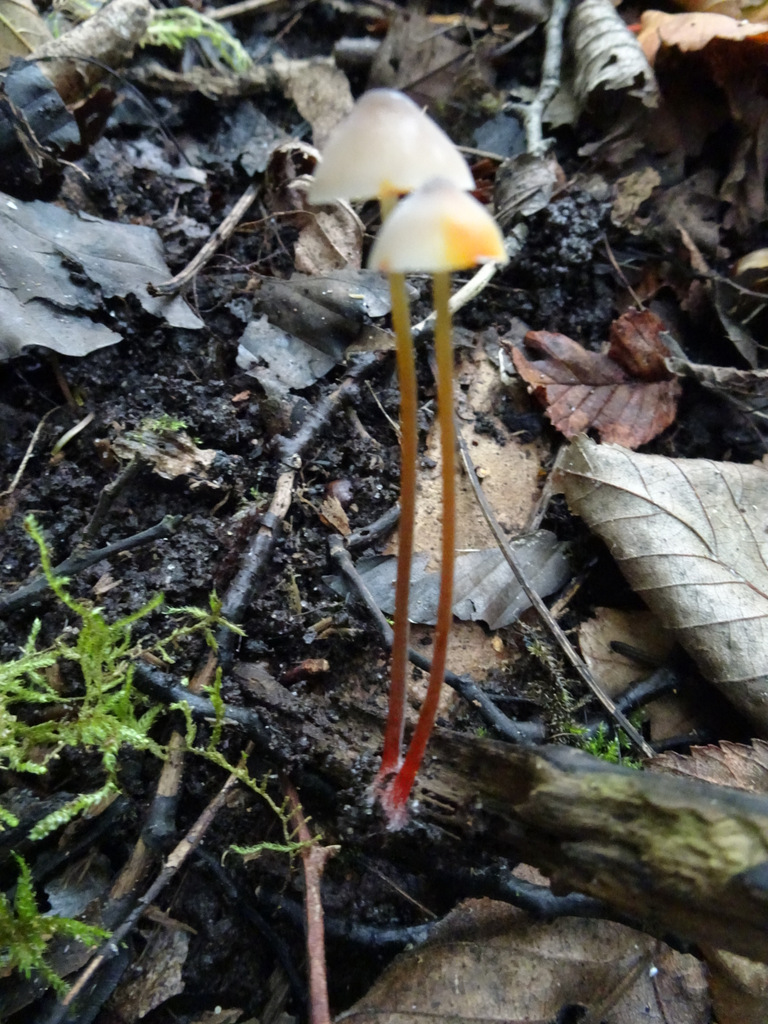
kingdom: Fungi
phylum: Basidiomycota
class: Agaricomycetes
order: Agaricales
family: Mycenaceae
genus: Mycena
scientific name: Mycena crocata
